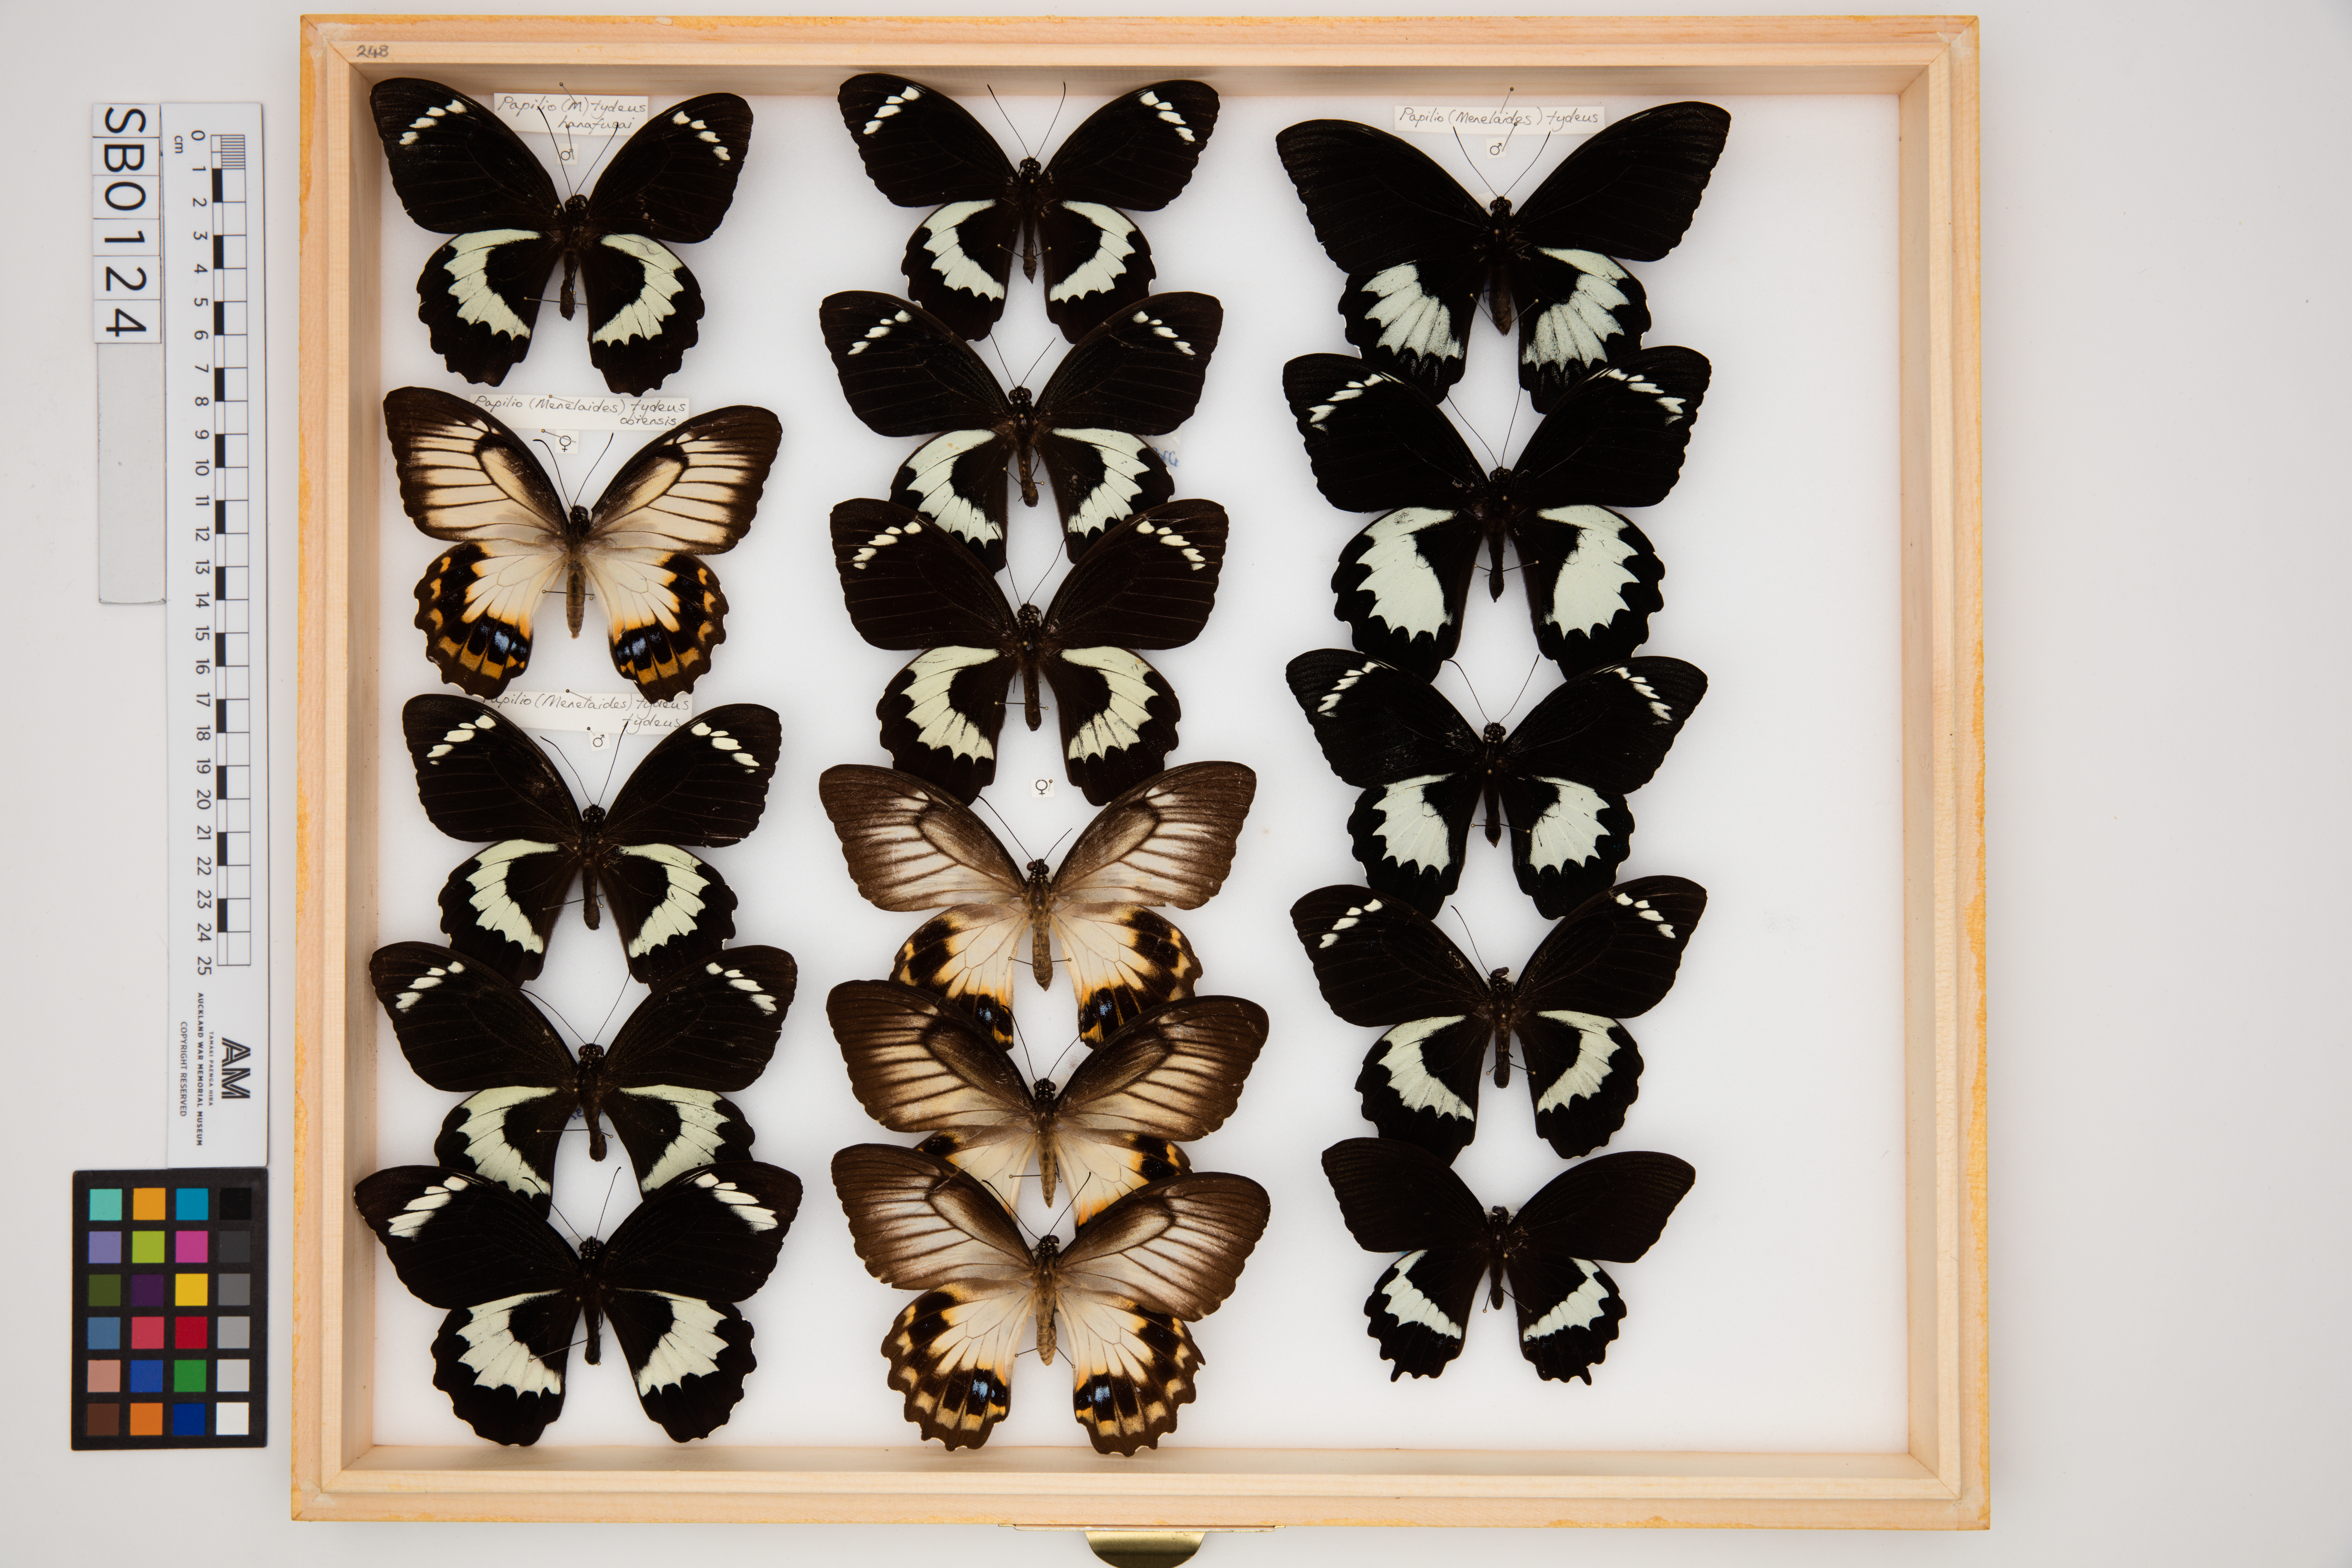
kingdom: Animalia
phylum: Arthropoda
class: Insecta
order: Lepidoptera
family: Papilionidae
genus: Papilio
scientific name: Papilio tydeus
